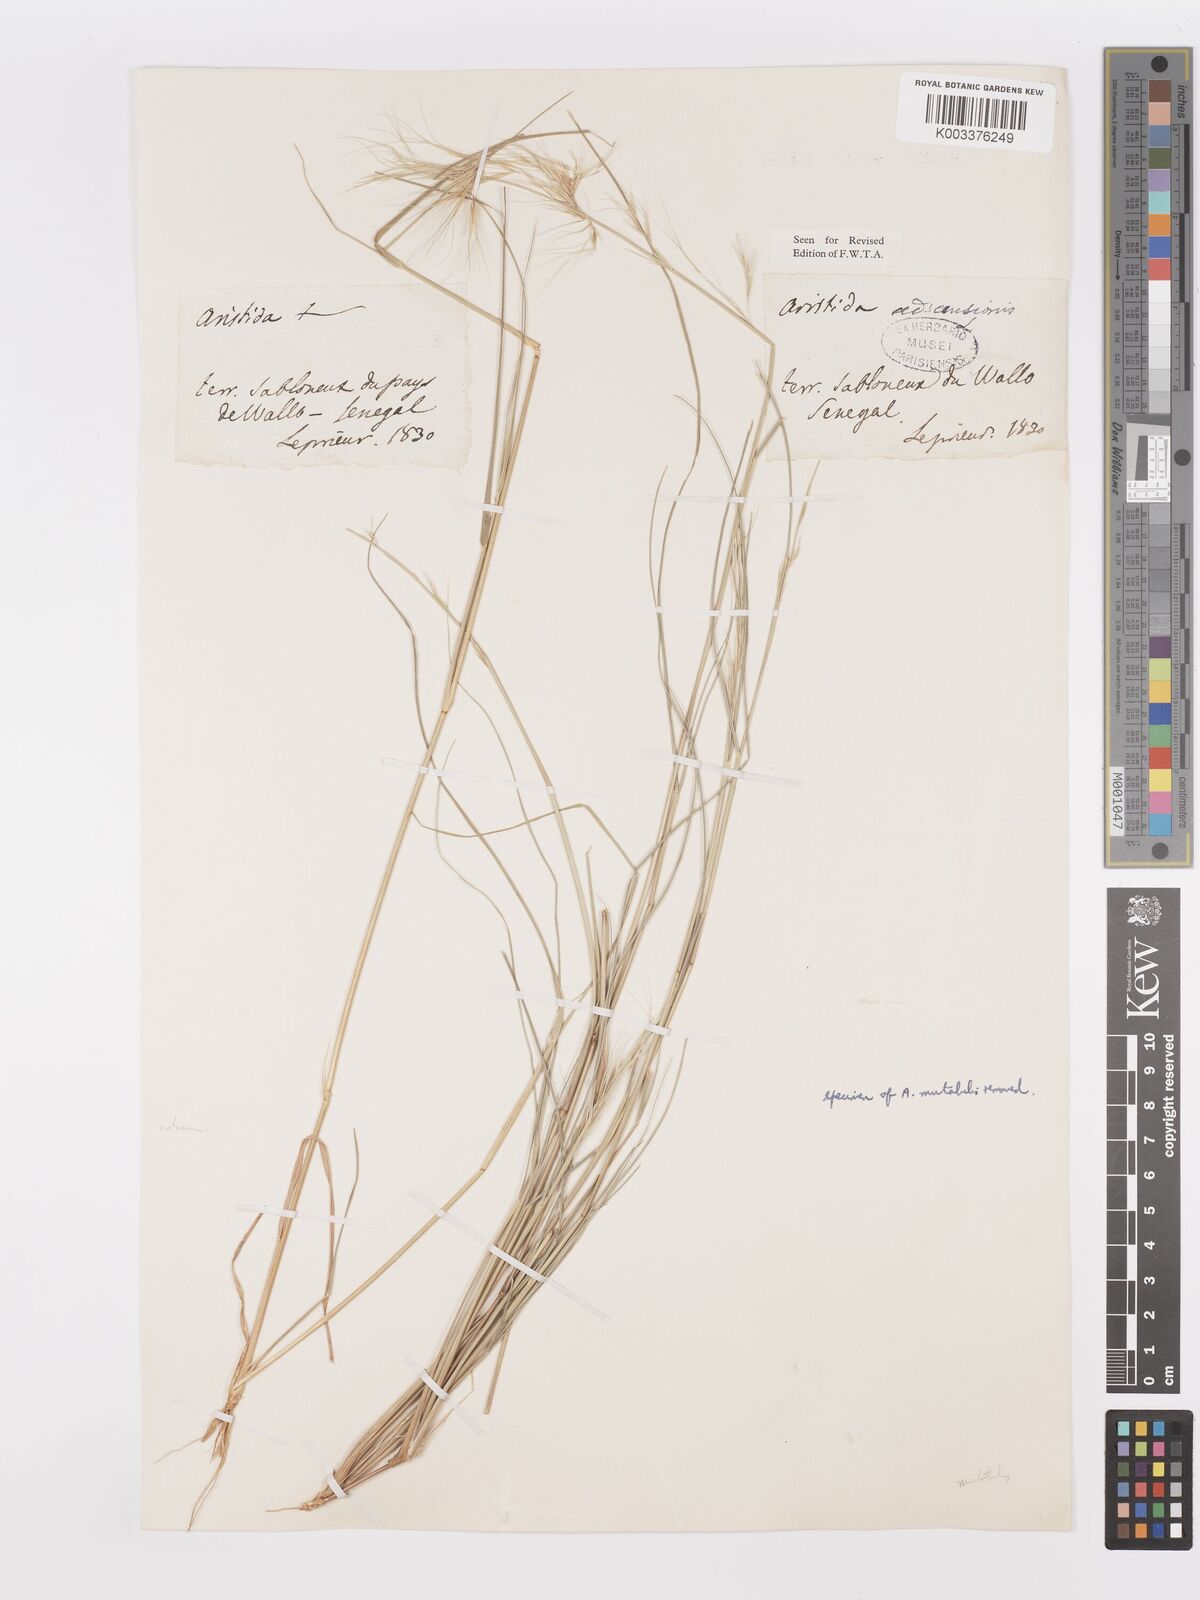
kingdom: Plantae
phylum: Tracheophyta
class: Liliopsida
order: Poales
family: Poaceae
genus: Aristida
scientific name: Aristida adscensionis
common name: Sixweeks threeawn
